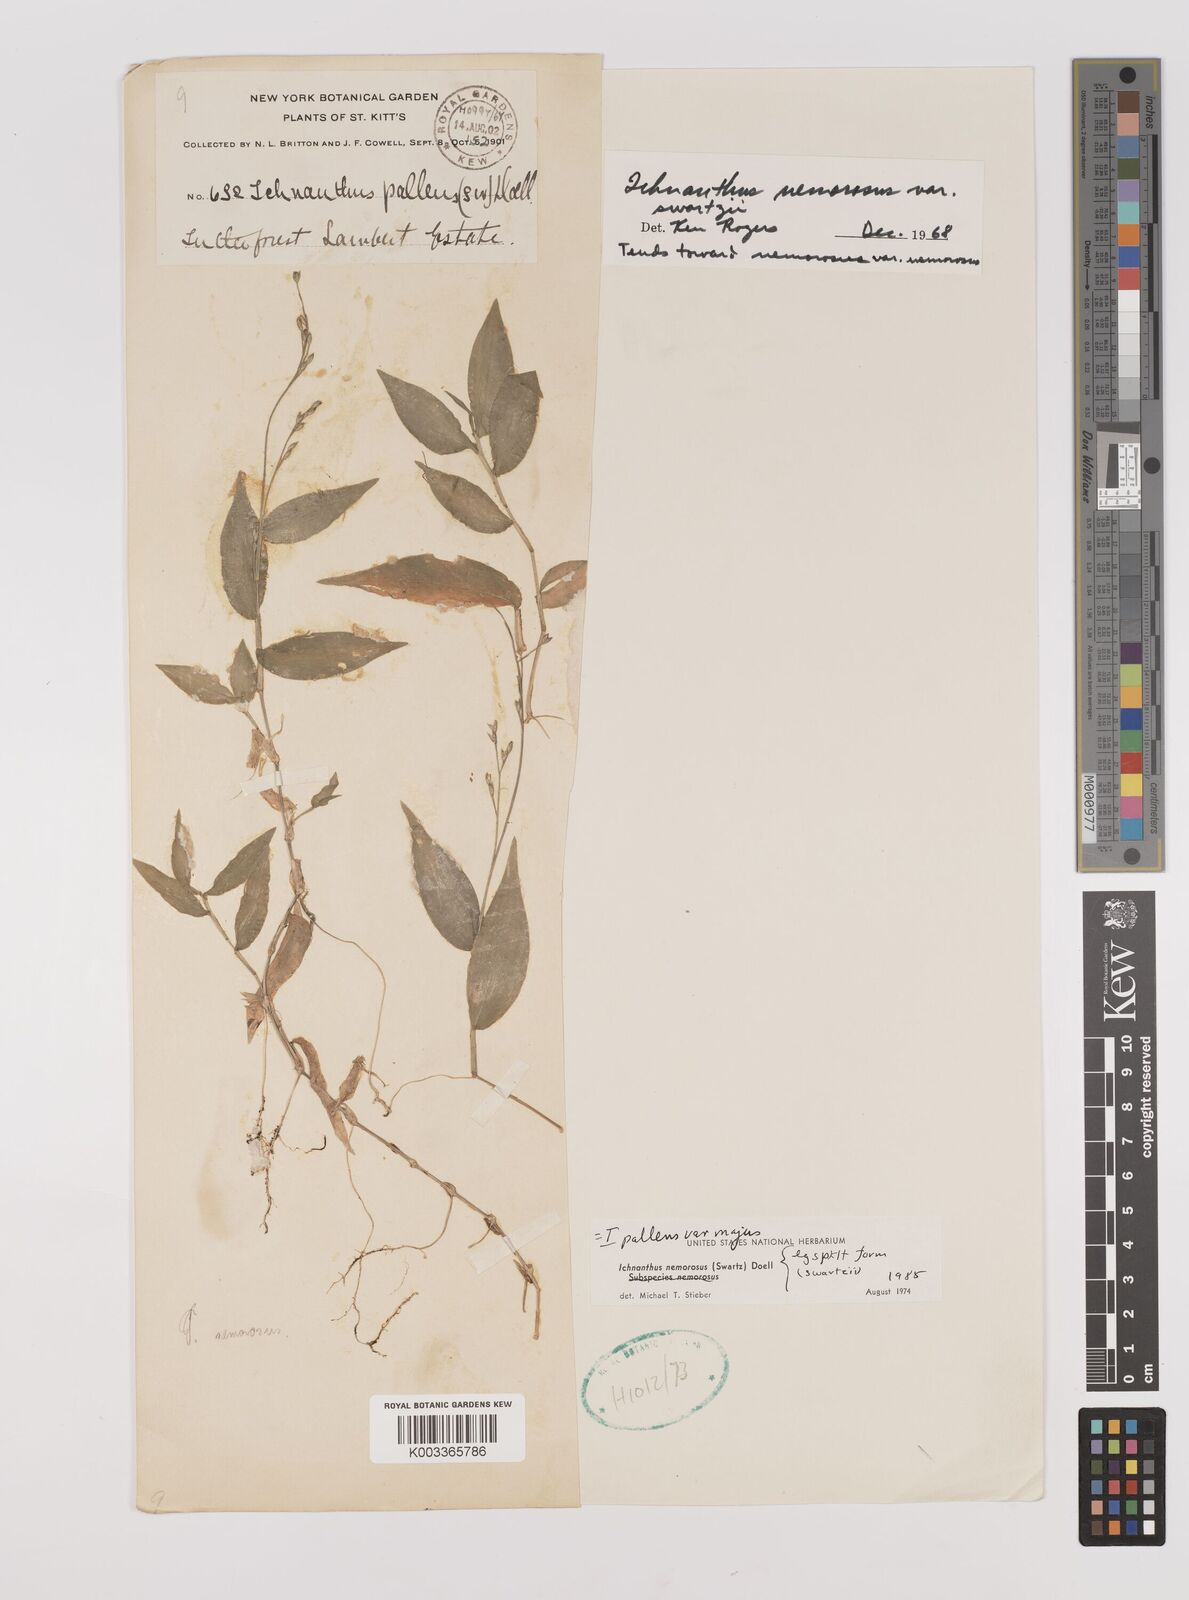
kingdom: Plantae
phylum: Tracheophyta
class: Liliopsida
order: Poales
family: Poaceae
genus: Ichnanthus
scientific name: Ichnanthus pallens
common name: Water grass
